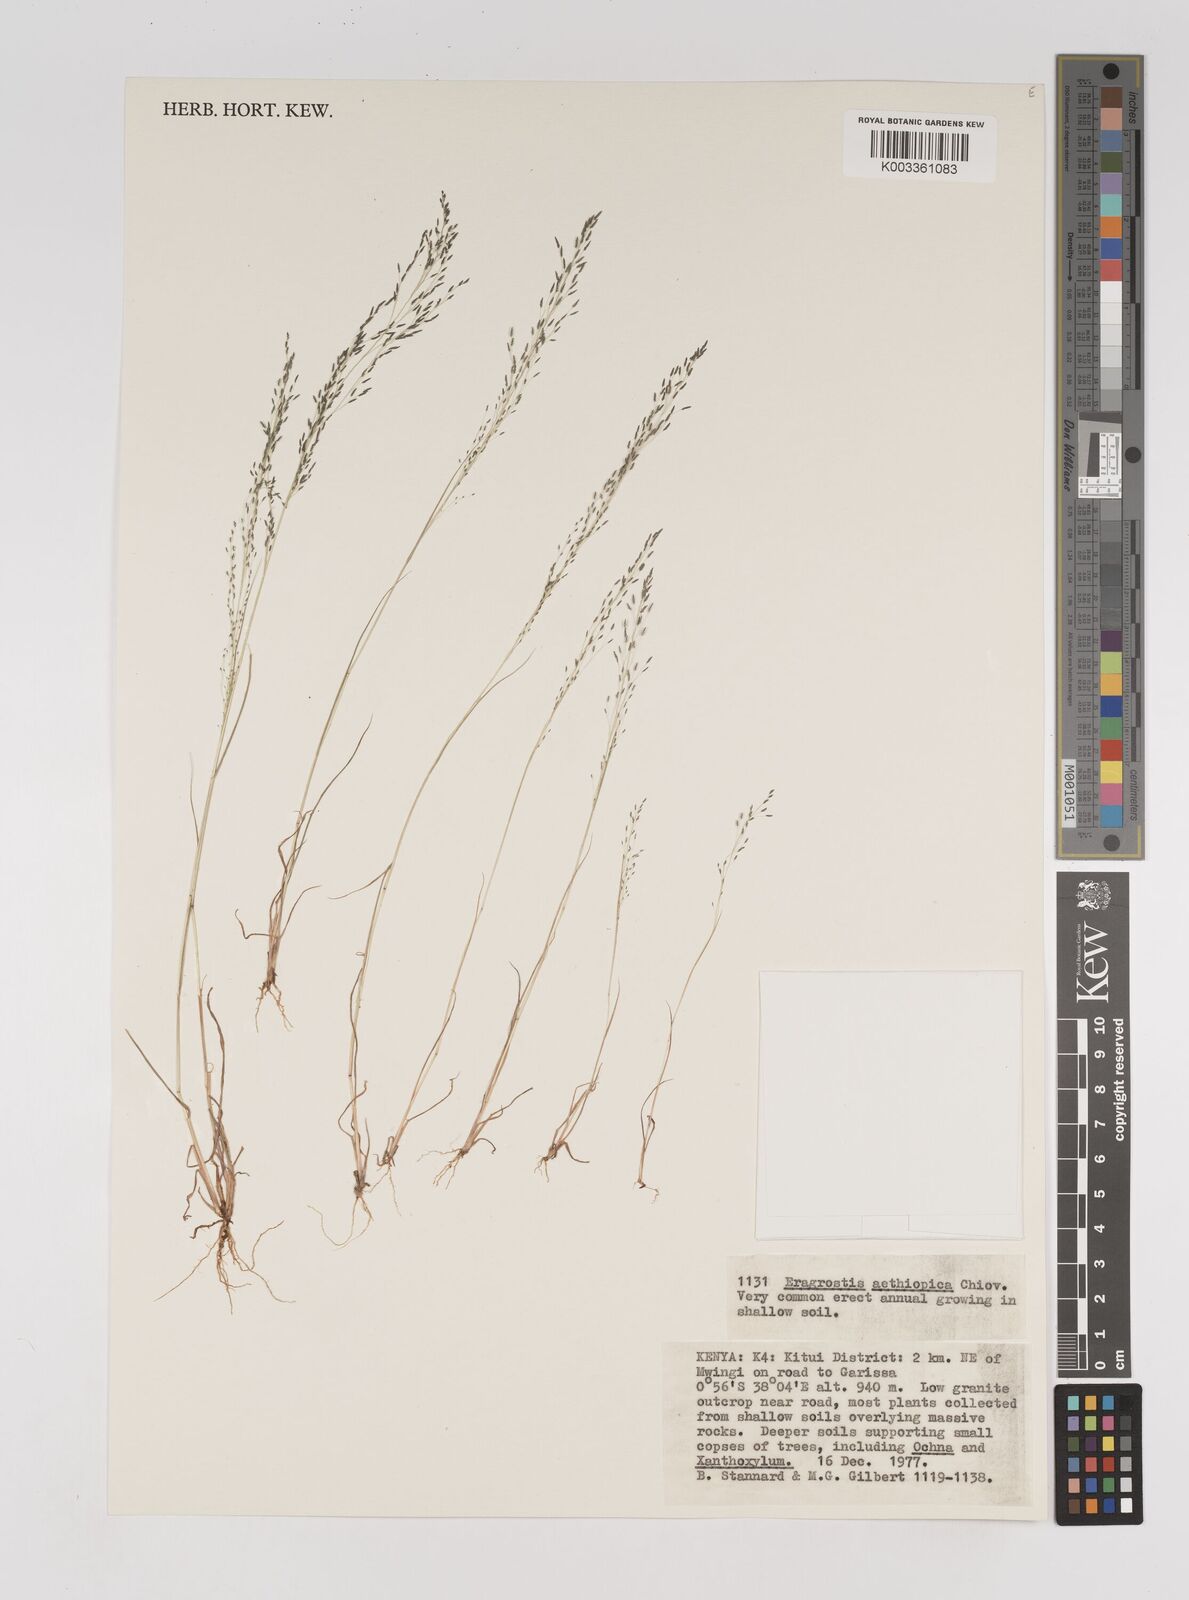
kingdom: Plantae
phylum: Tracheophyta
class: Liliopsida
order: Poales
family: Poaceae
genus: Eragrostis
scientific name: Eragrostis aethiopica
